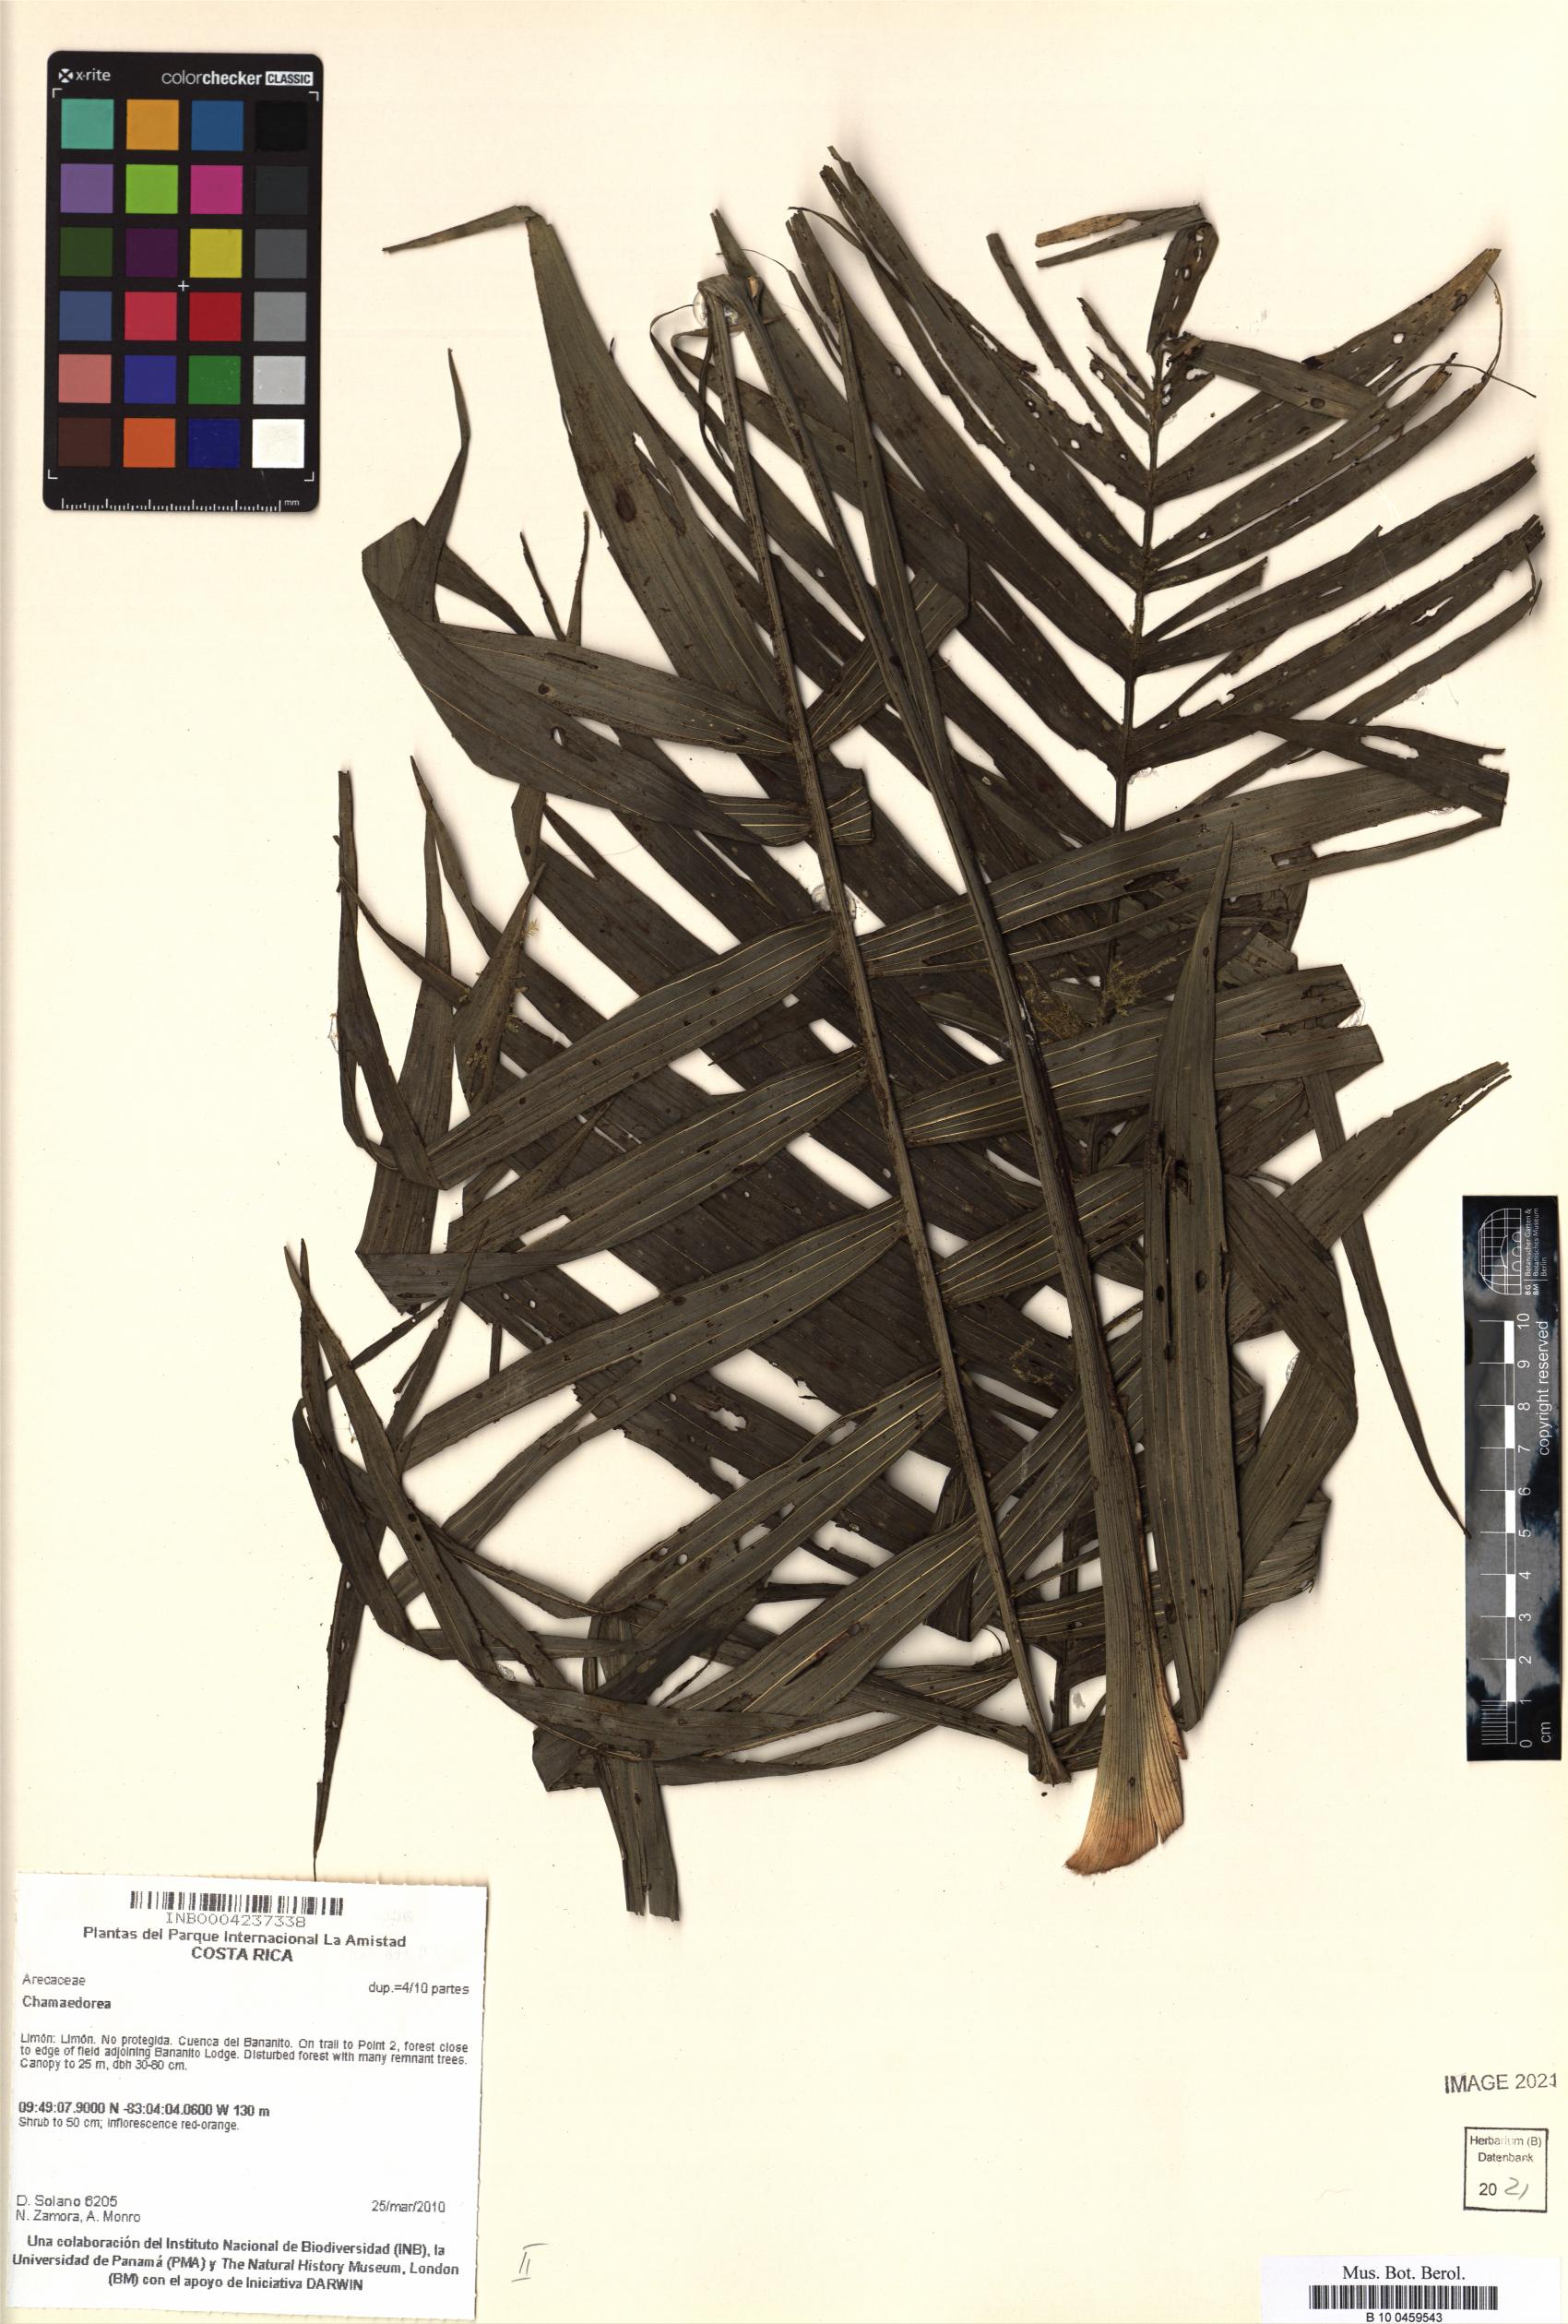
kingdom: Plantae
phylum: Tracheophyta
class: Liliopsida
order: Arecales
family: Arecaceae
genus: Chamaedorea
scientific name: Chamaedorea
